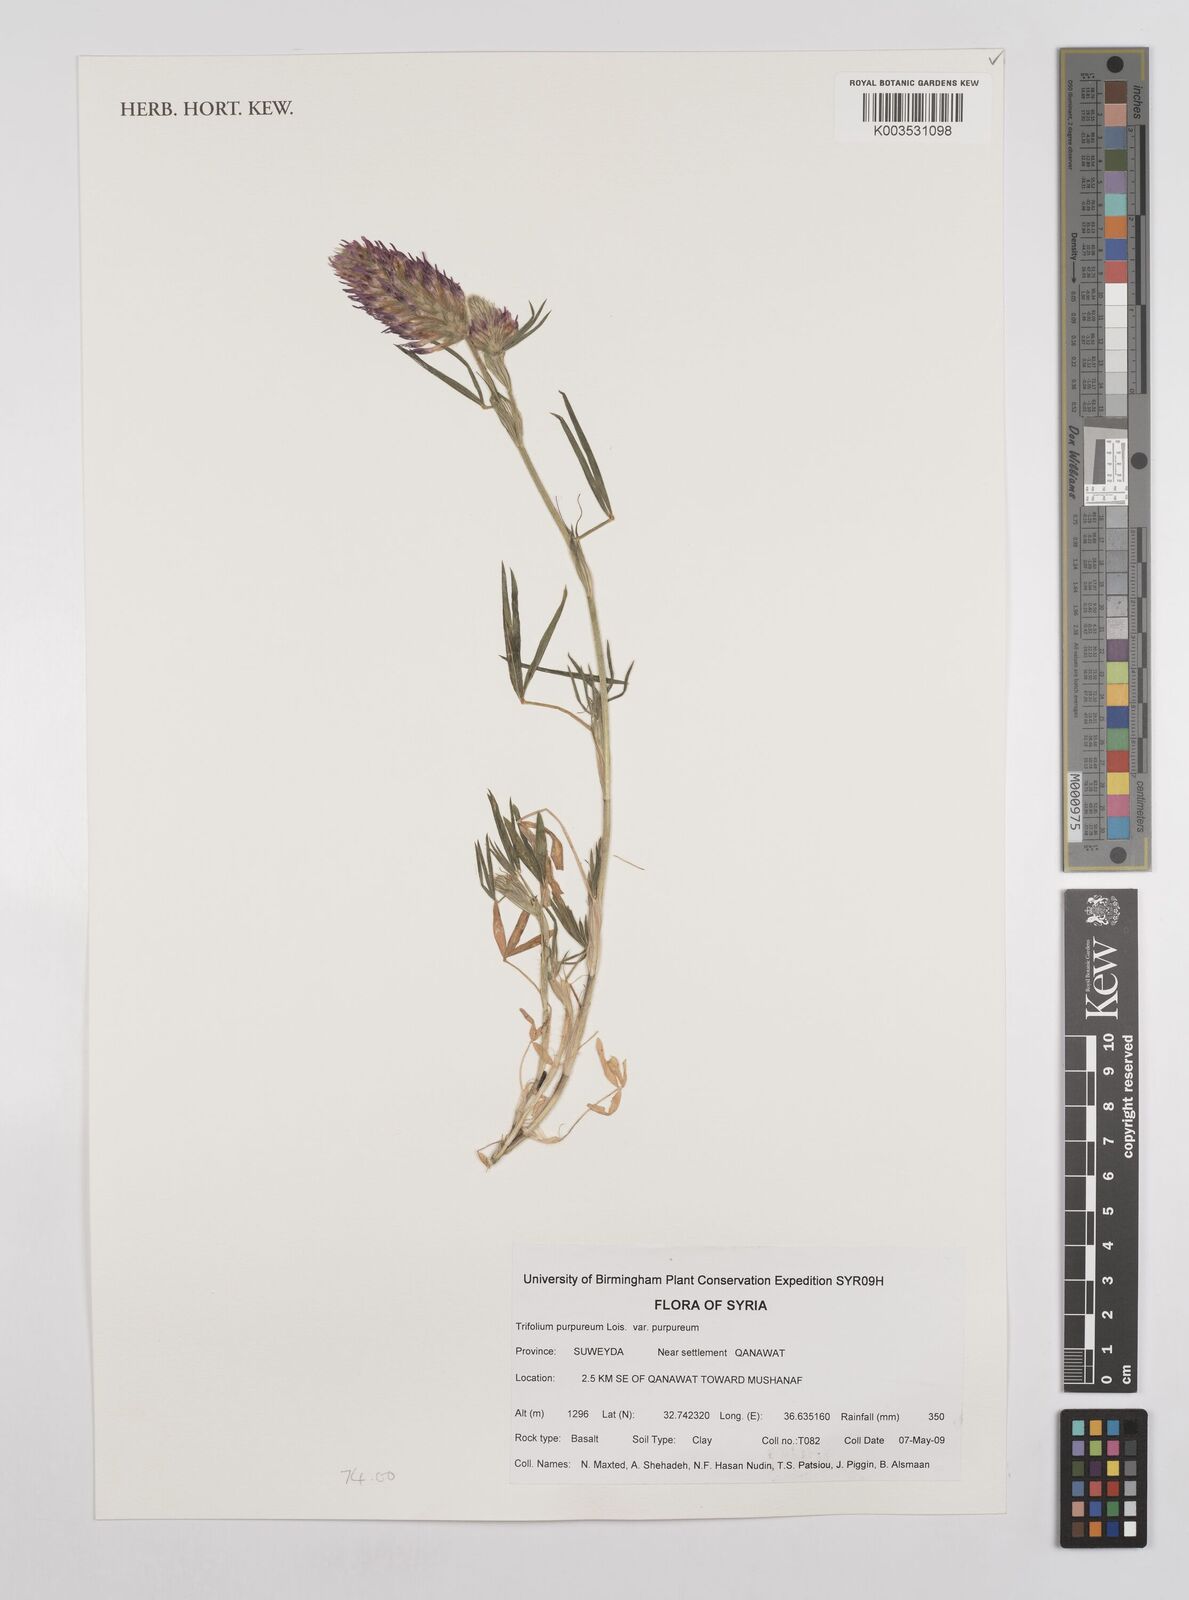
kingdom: Plantae
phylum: Tracheophyta
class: Magnoliopsida
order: Fabales
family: Fabaceae
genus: Trifolium
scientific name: Trifolium purpureum
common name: Purple clover
